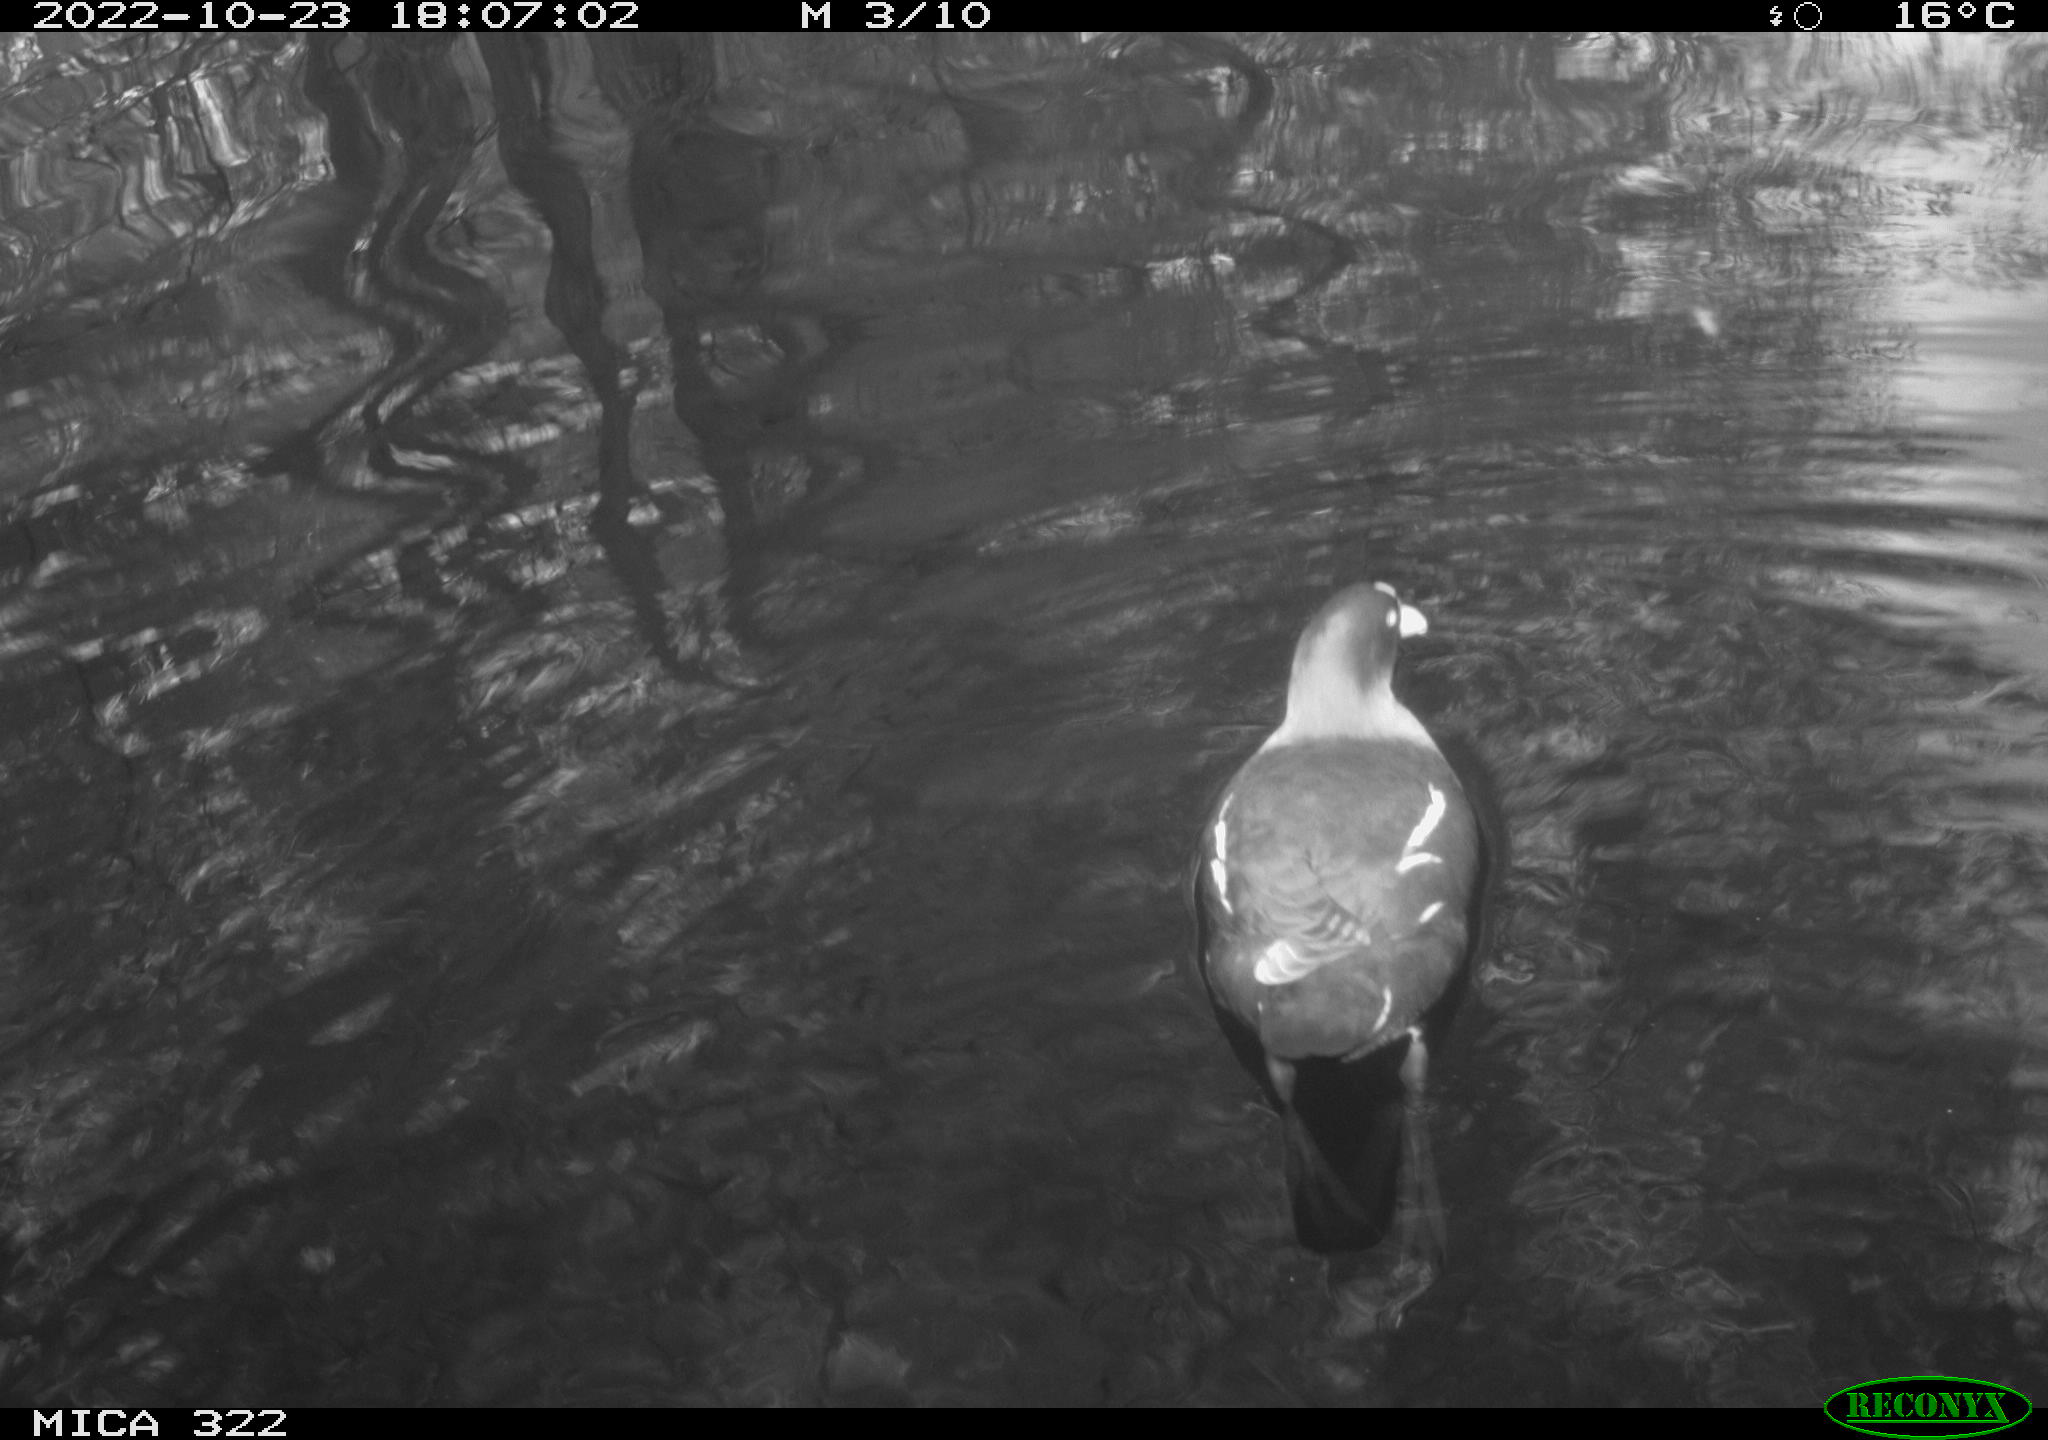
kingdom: Animalia
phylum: Chordata
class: Aves
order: Gruiformes
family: Rallidae
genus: Gallinula
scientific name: Gallinula chloropus
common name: Common moorhen
